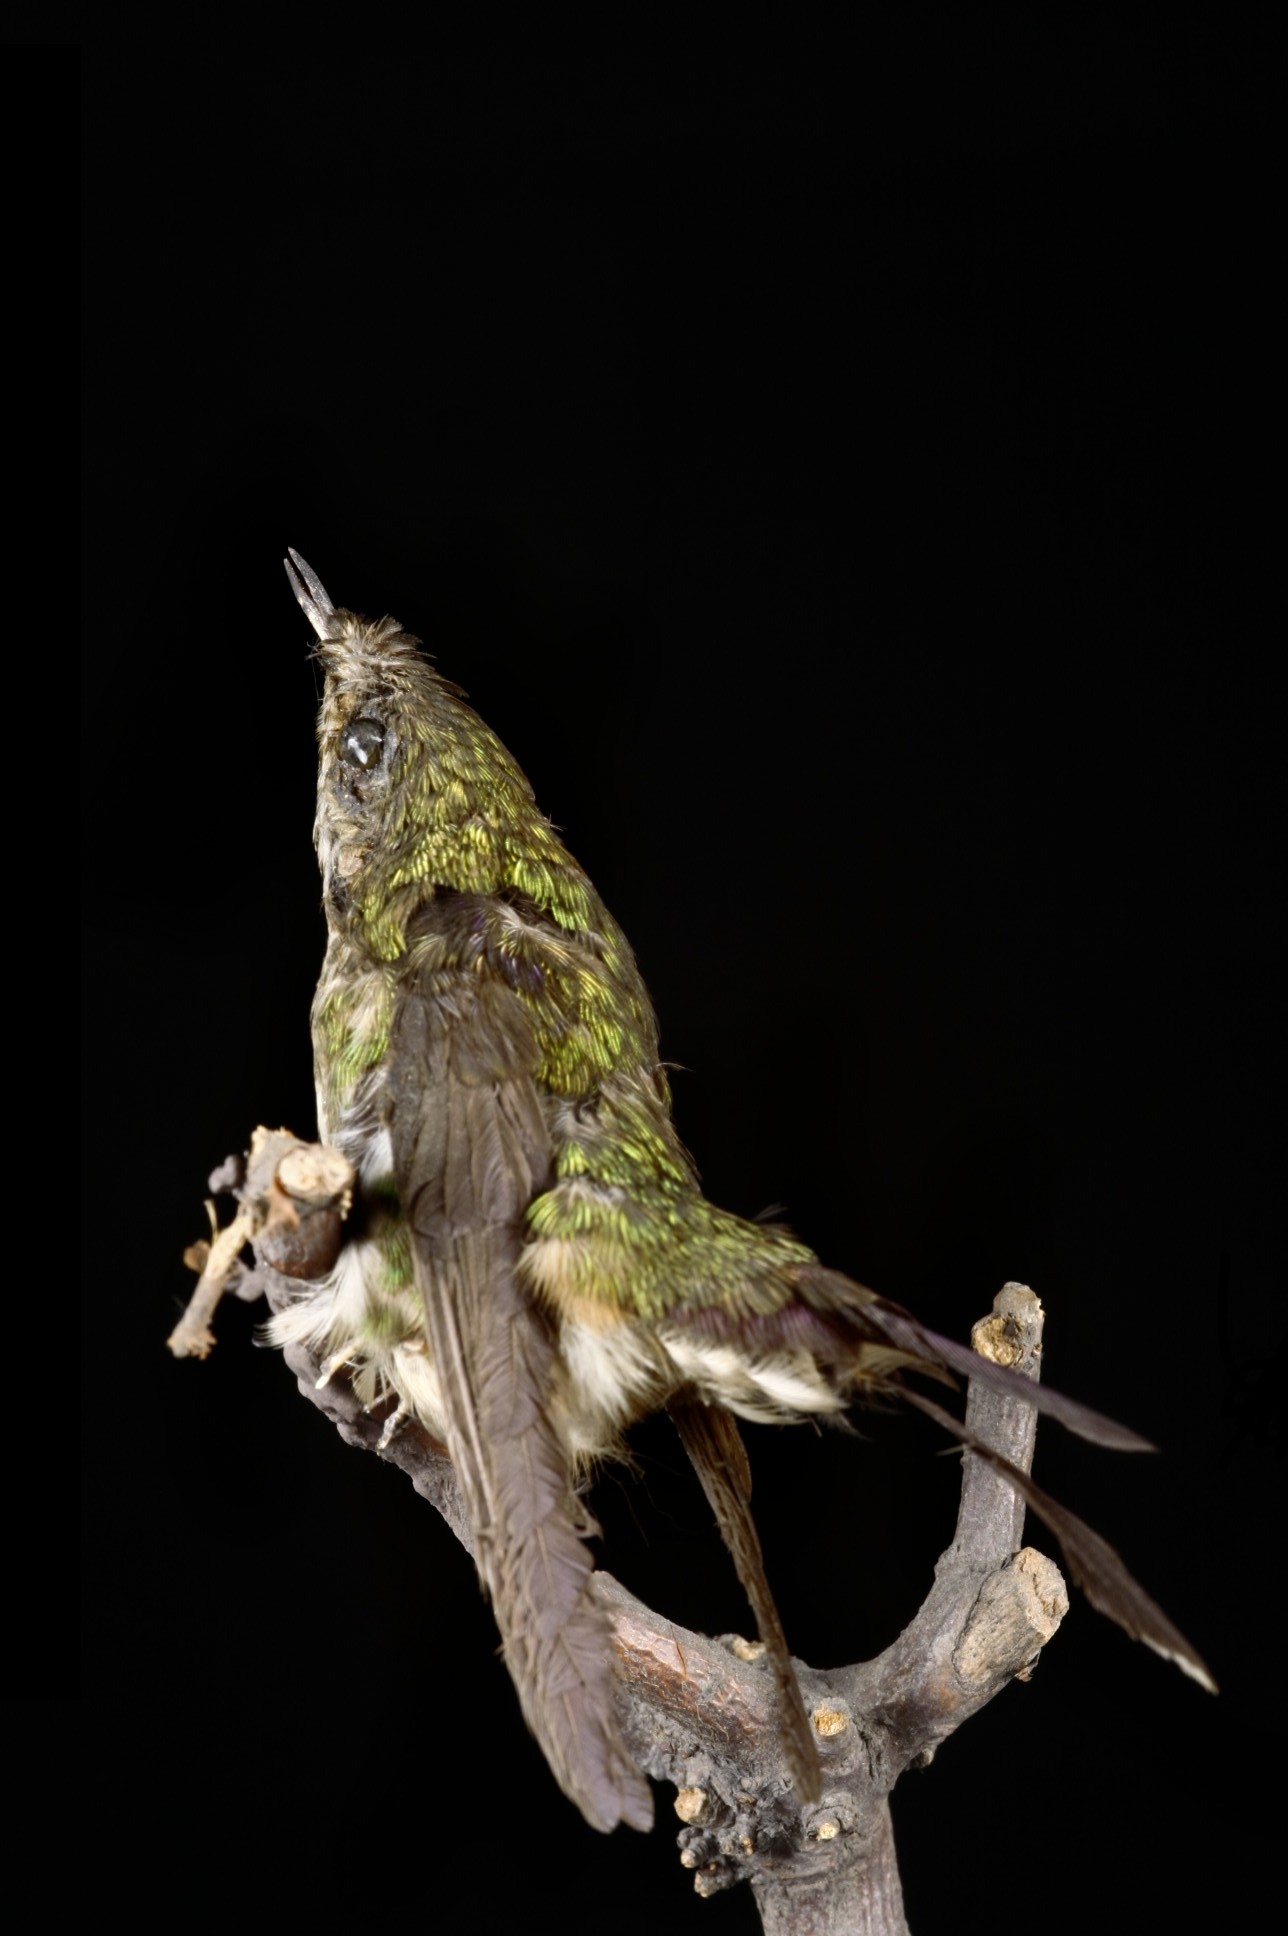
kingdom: Animalia
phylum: Chordata
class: Aves
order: Apodiformes
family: Trochilidae
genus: Ramphomicron
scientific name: Ramphomicron microrhynchum
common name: Purple-backed thornbill
